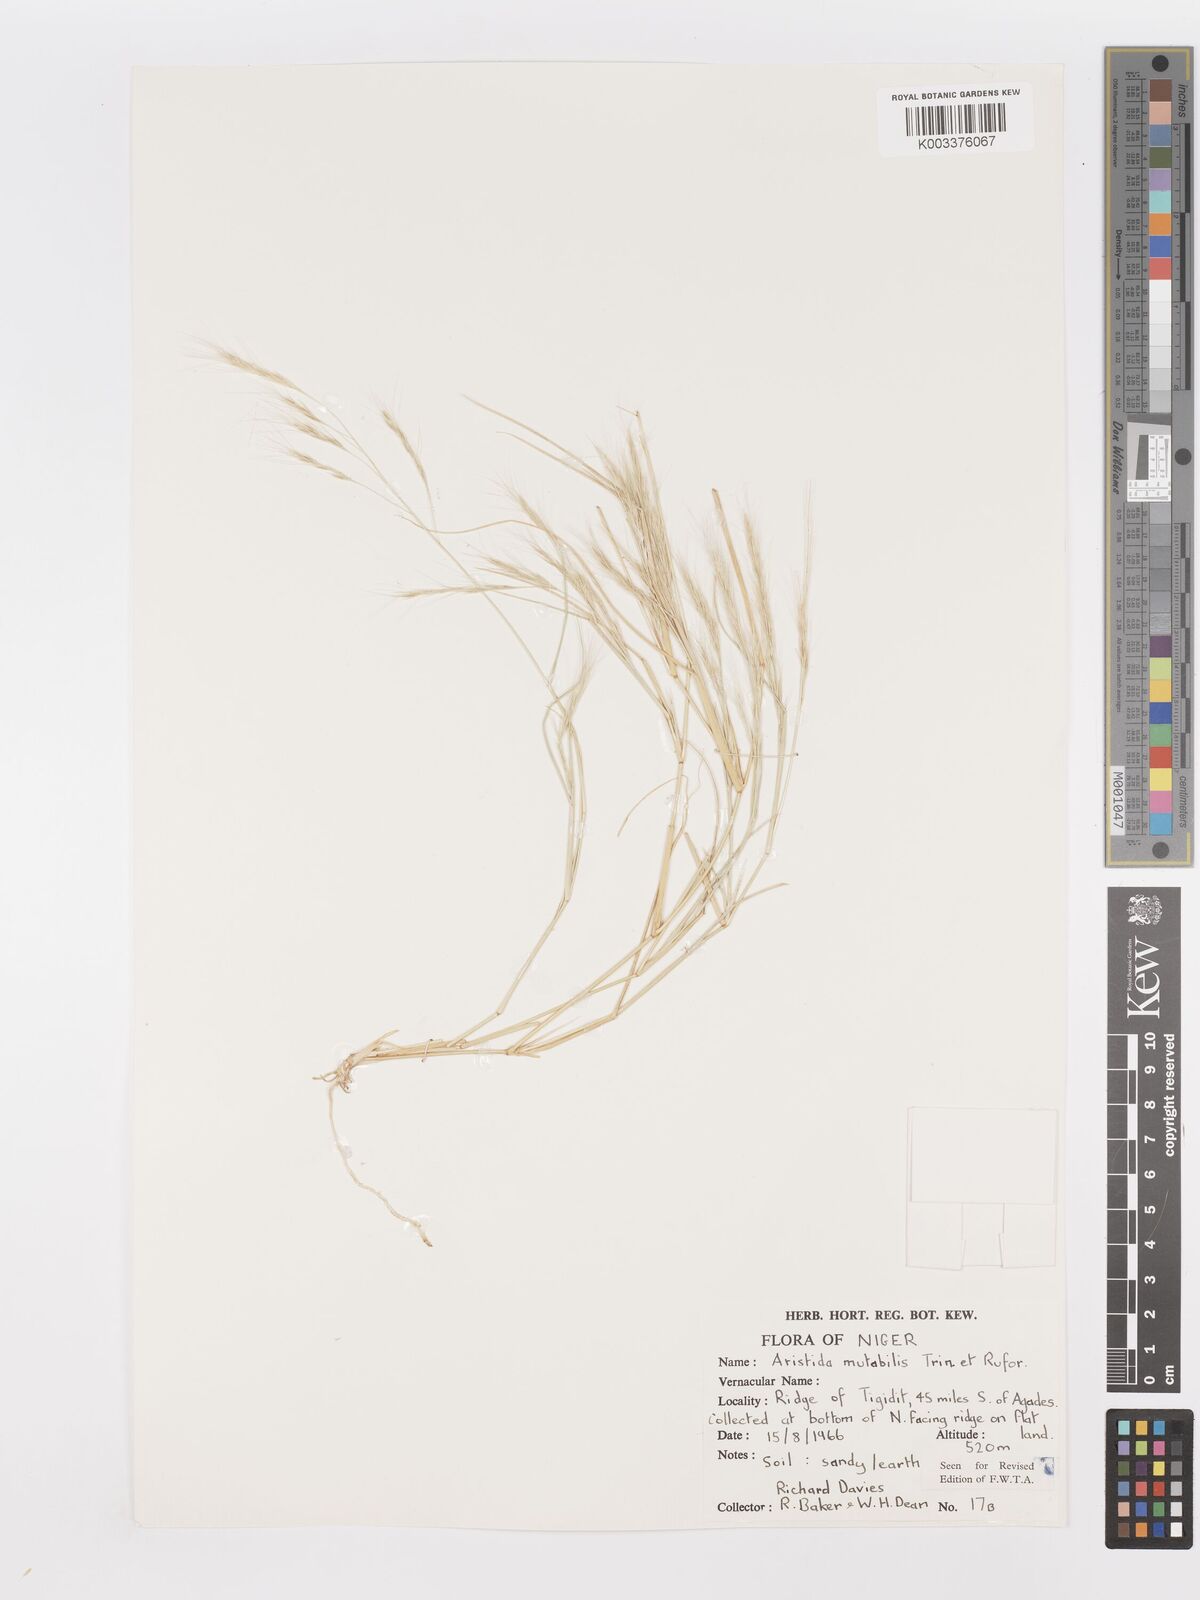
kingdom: Plantae
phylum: Tracheophyta
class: Liliopsida
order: Poales
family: Poaceae
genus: Aristida
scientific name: Aristida mutabilis
